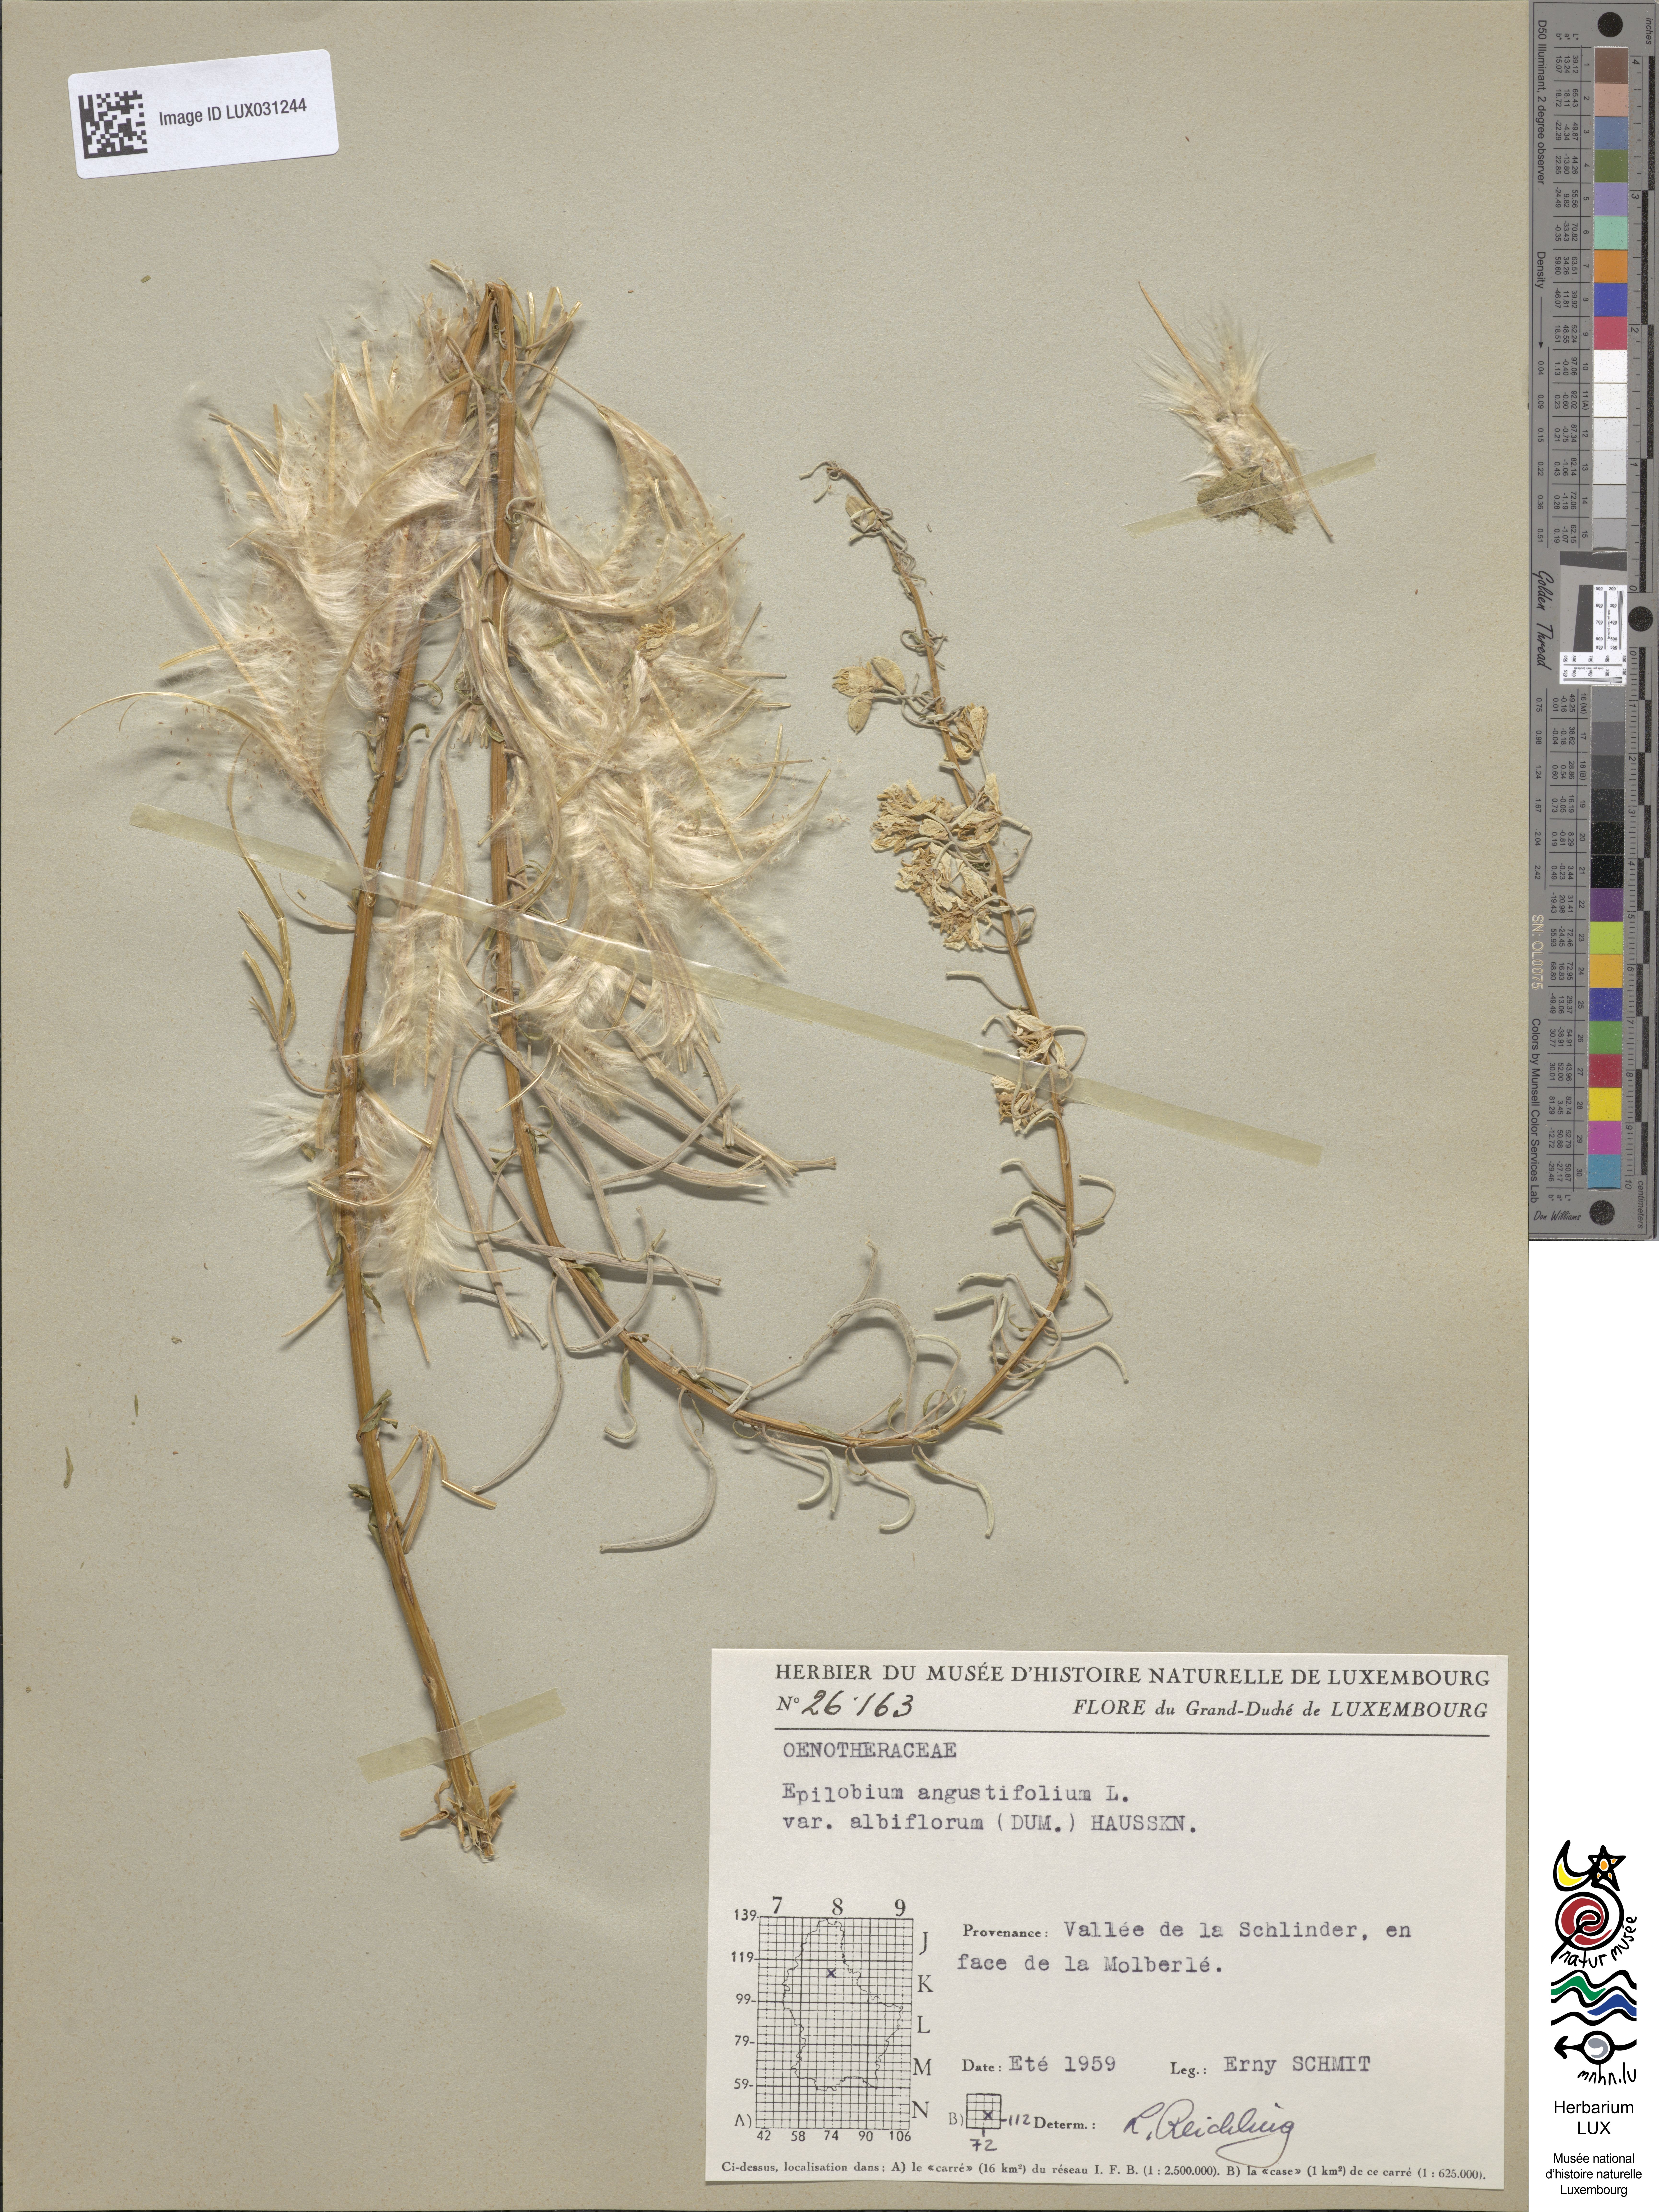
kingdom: Plantae
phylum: Tracheophyta
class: Magnoliopsida
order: Myrtales
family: Onagraceae
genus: Chamaenerion
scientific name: Chamaenerion angustifolium
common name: Fireweed
